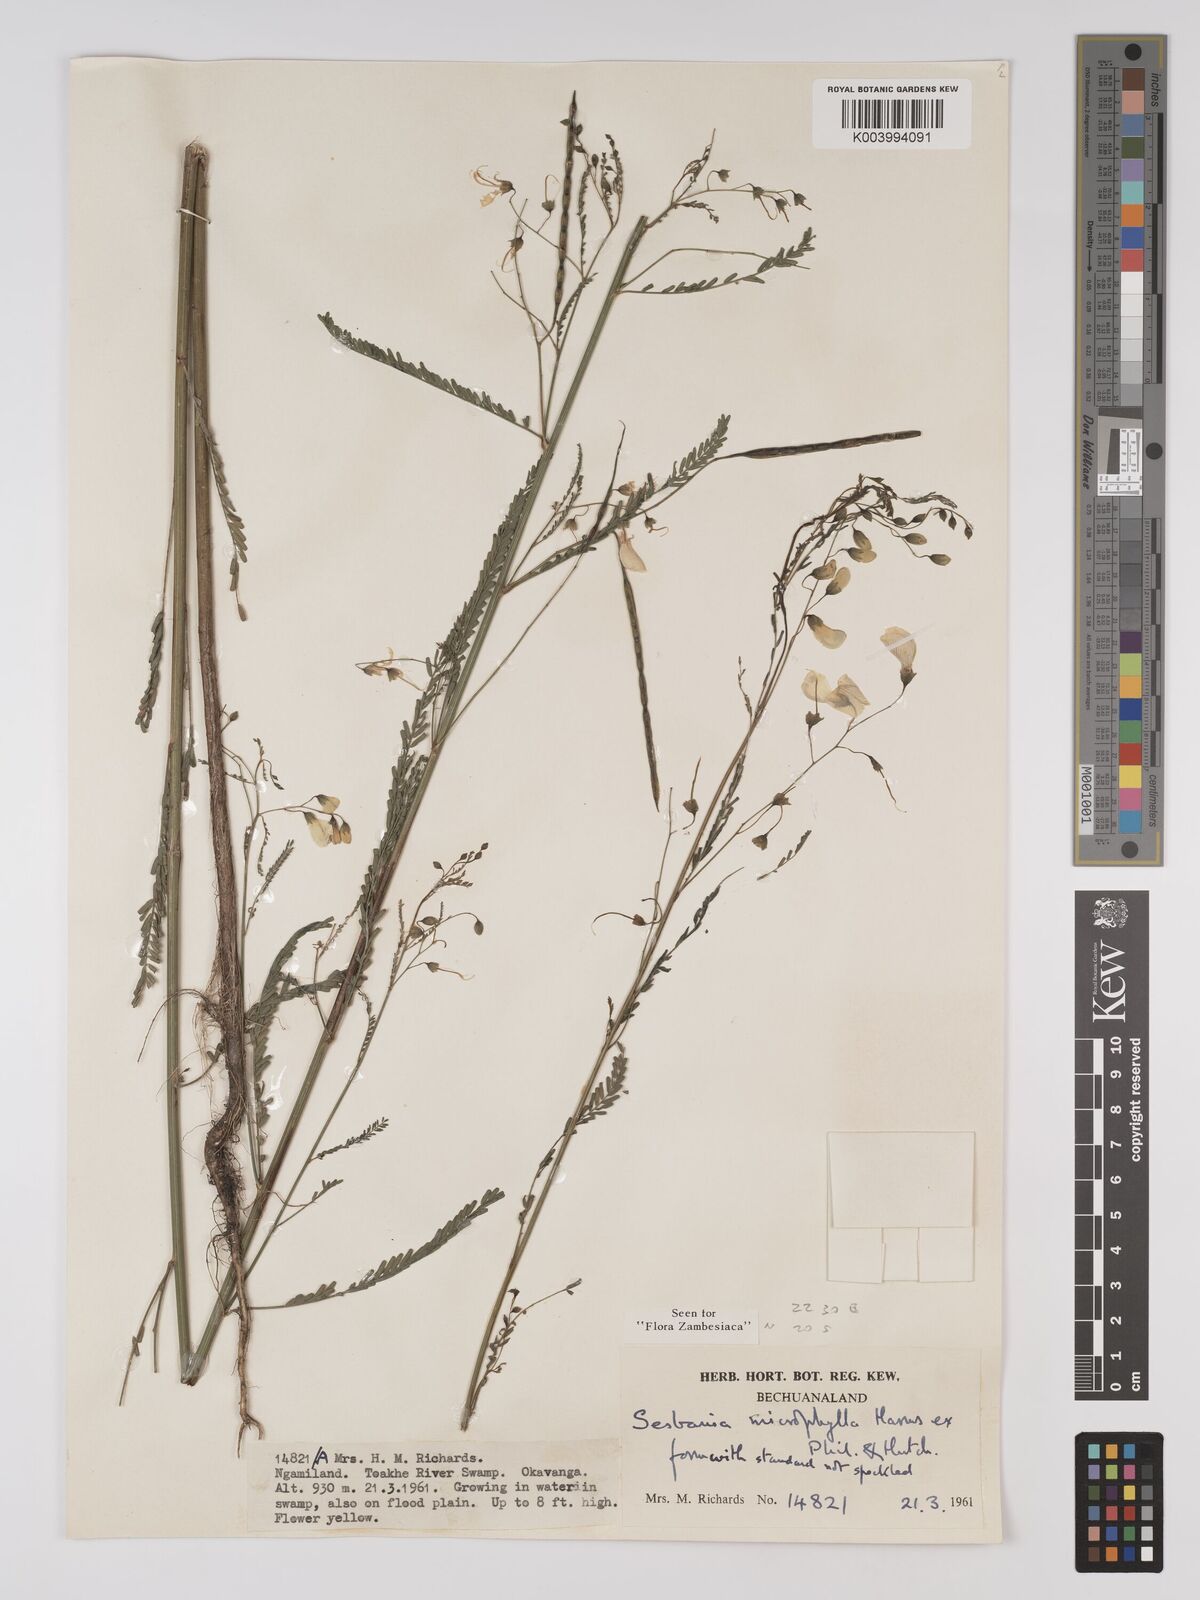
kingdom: Plantae
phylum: Tracheophyta
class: Magnoliopsida
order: Fabales
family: Fabaceae
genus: Sesbania
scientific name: Sesbania microphylla
